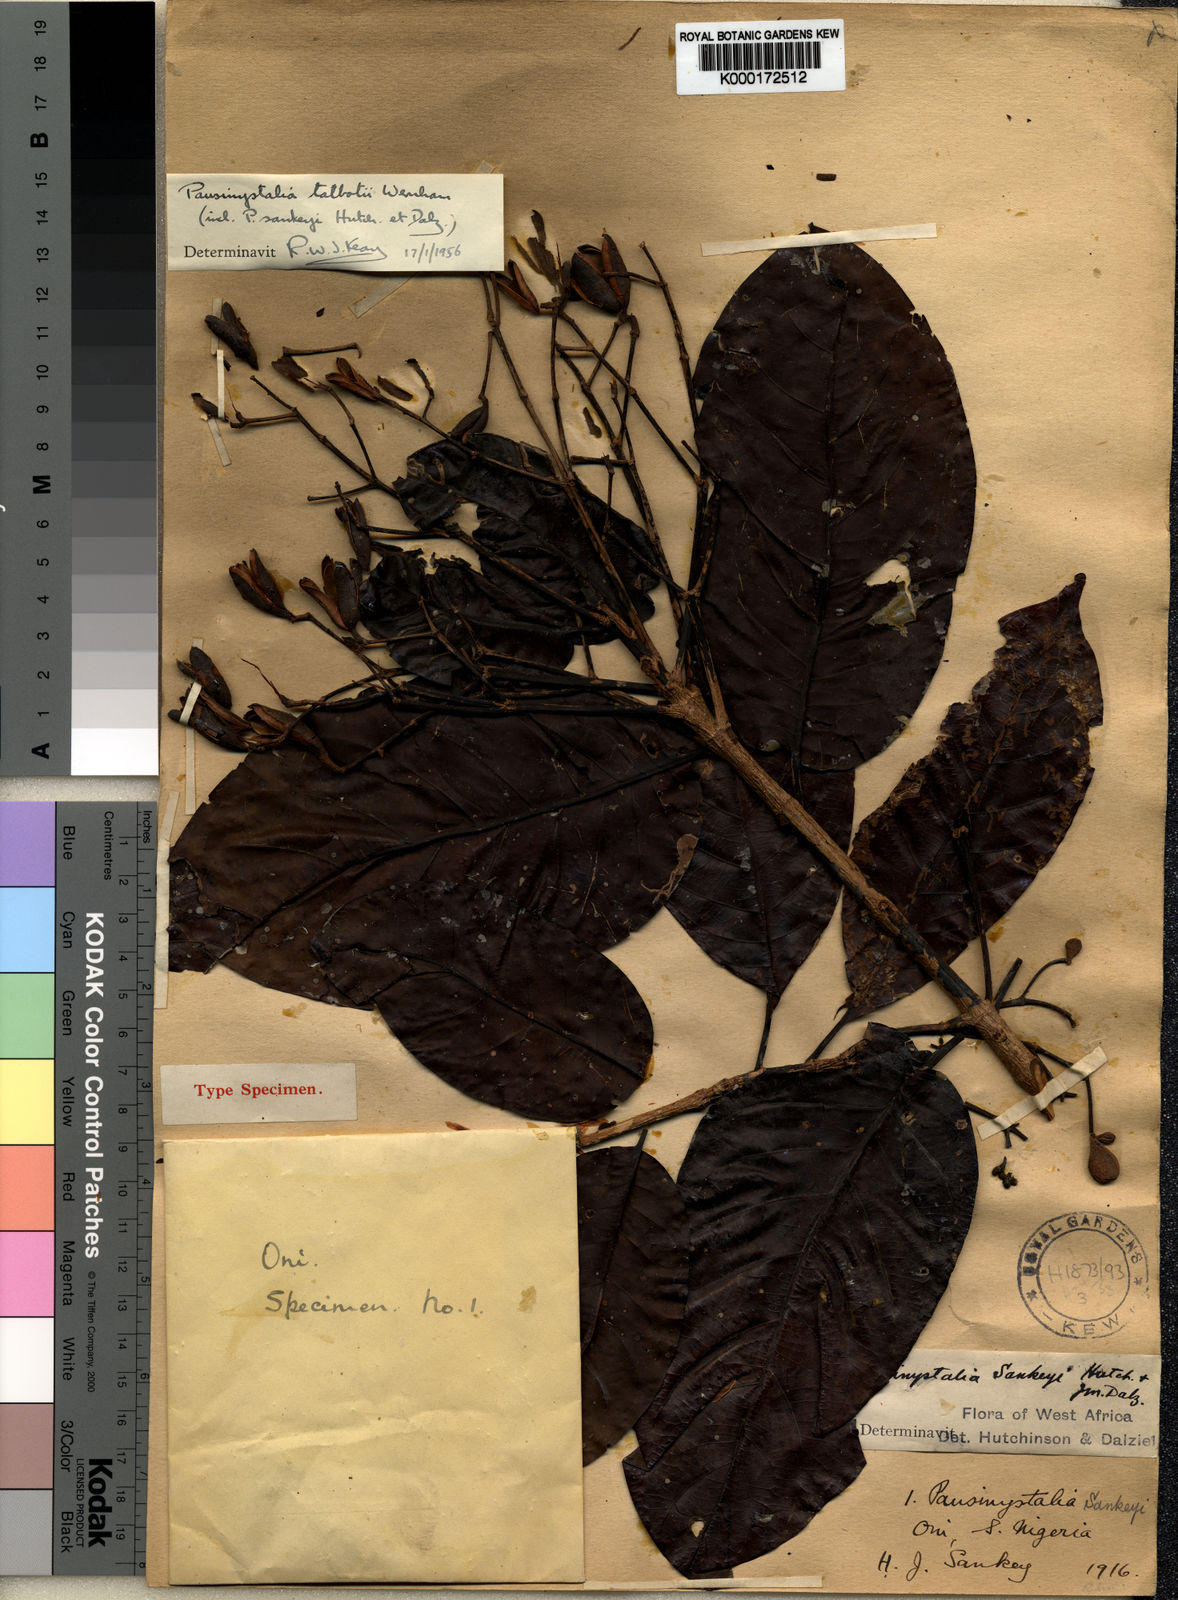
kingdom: Plantae
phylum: Tracheophyta
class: Magnoliopsida
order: Gentianales
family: Rubiaceae
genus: Corynanthe
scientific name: Corynanthe talbotii
